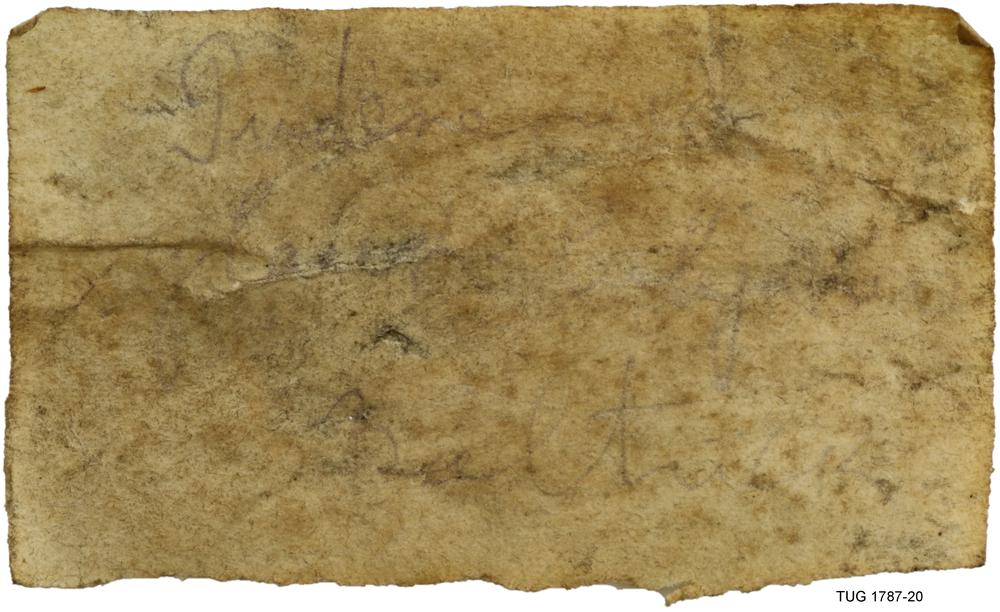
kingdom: Animalia
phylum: Brachiopoda
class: Lingulata
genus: Pseudometoptoma
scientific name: Pseudometoptoma
